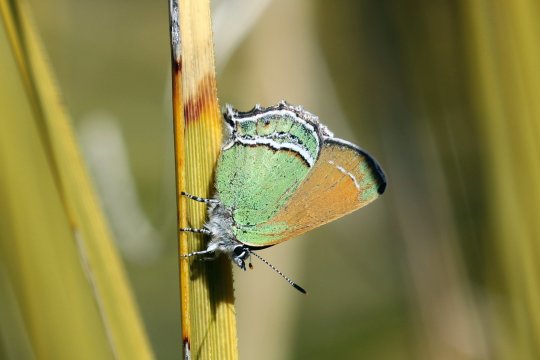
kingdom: Animalia
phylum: Arthropoda
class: Insecta
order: Lepidoptera
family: Lycaenidae
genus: Sandia
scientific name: Sandia mcfarlandi
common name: Sandia Hairstreak
